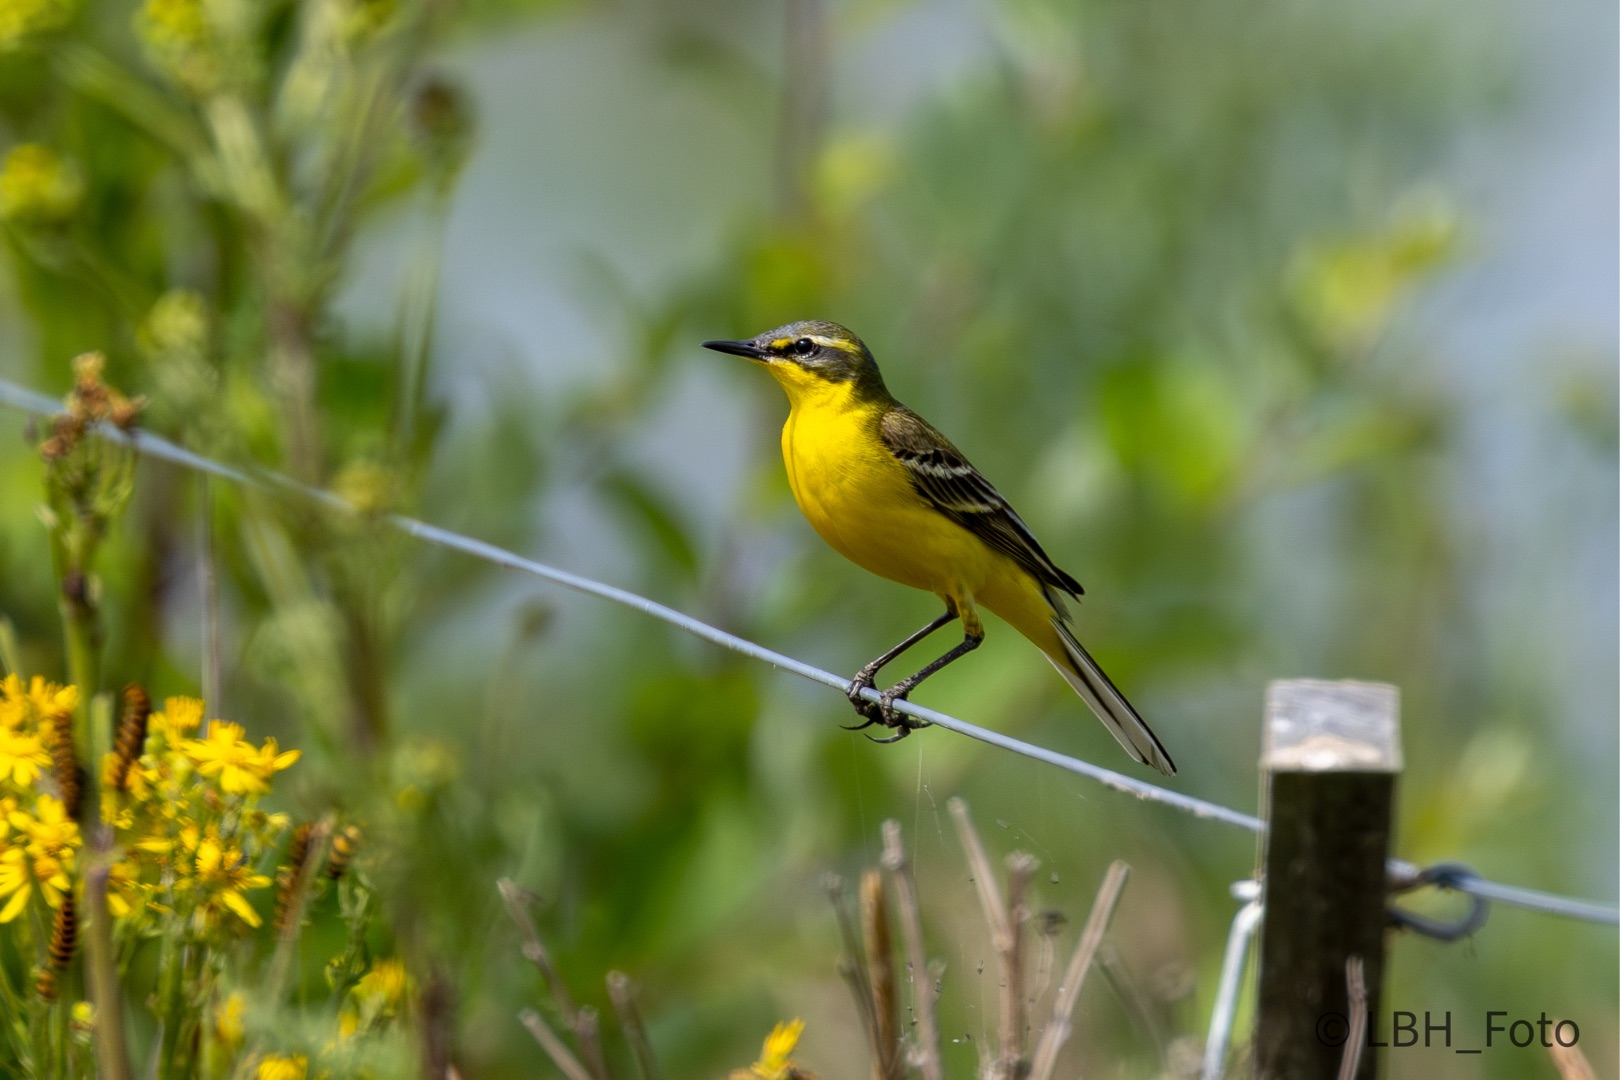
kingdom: Animalia
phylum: Chordata
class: Aves
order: Passeriformes
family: Motacillidae
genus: Motacilla
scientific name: Motacilla flava
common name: Gul vipstjert
